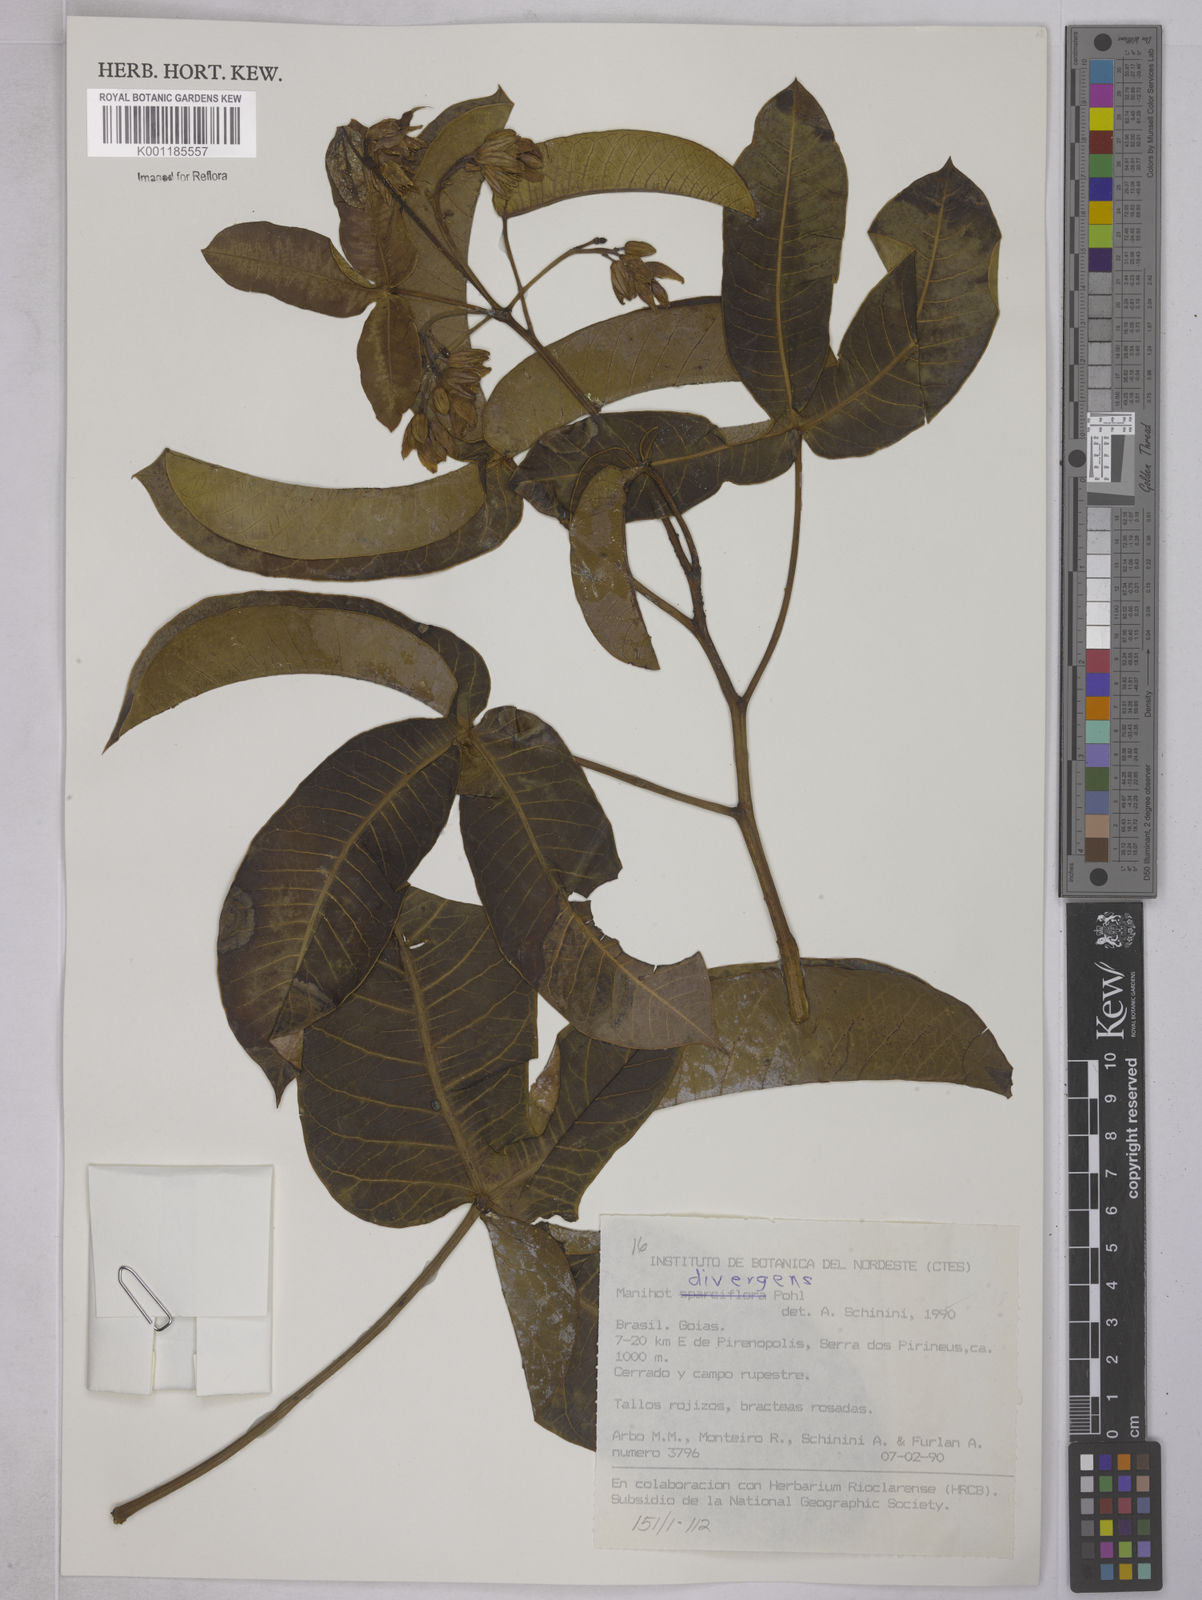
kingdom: Plantae
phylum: Tracheophyta
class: Magnoliopsida
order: Malpighiales
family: Euphorbiaceae
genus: Manihot
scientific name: Manihot divergens
